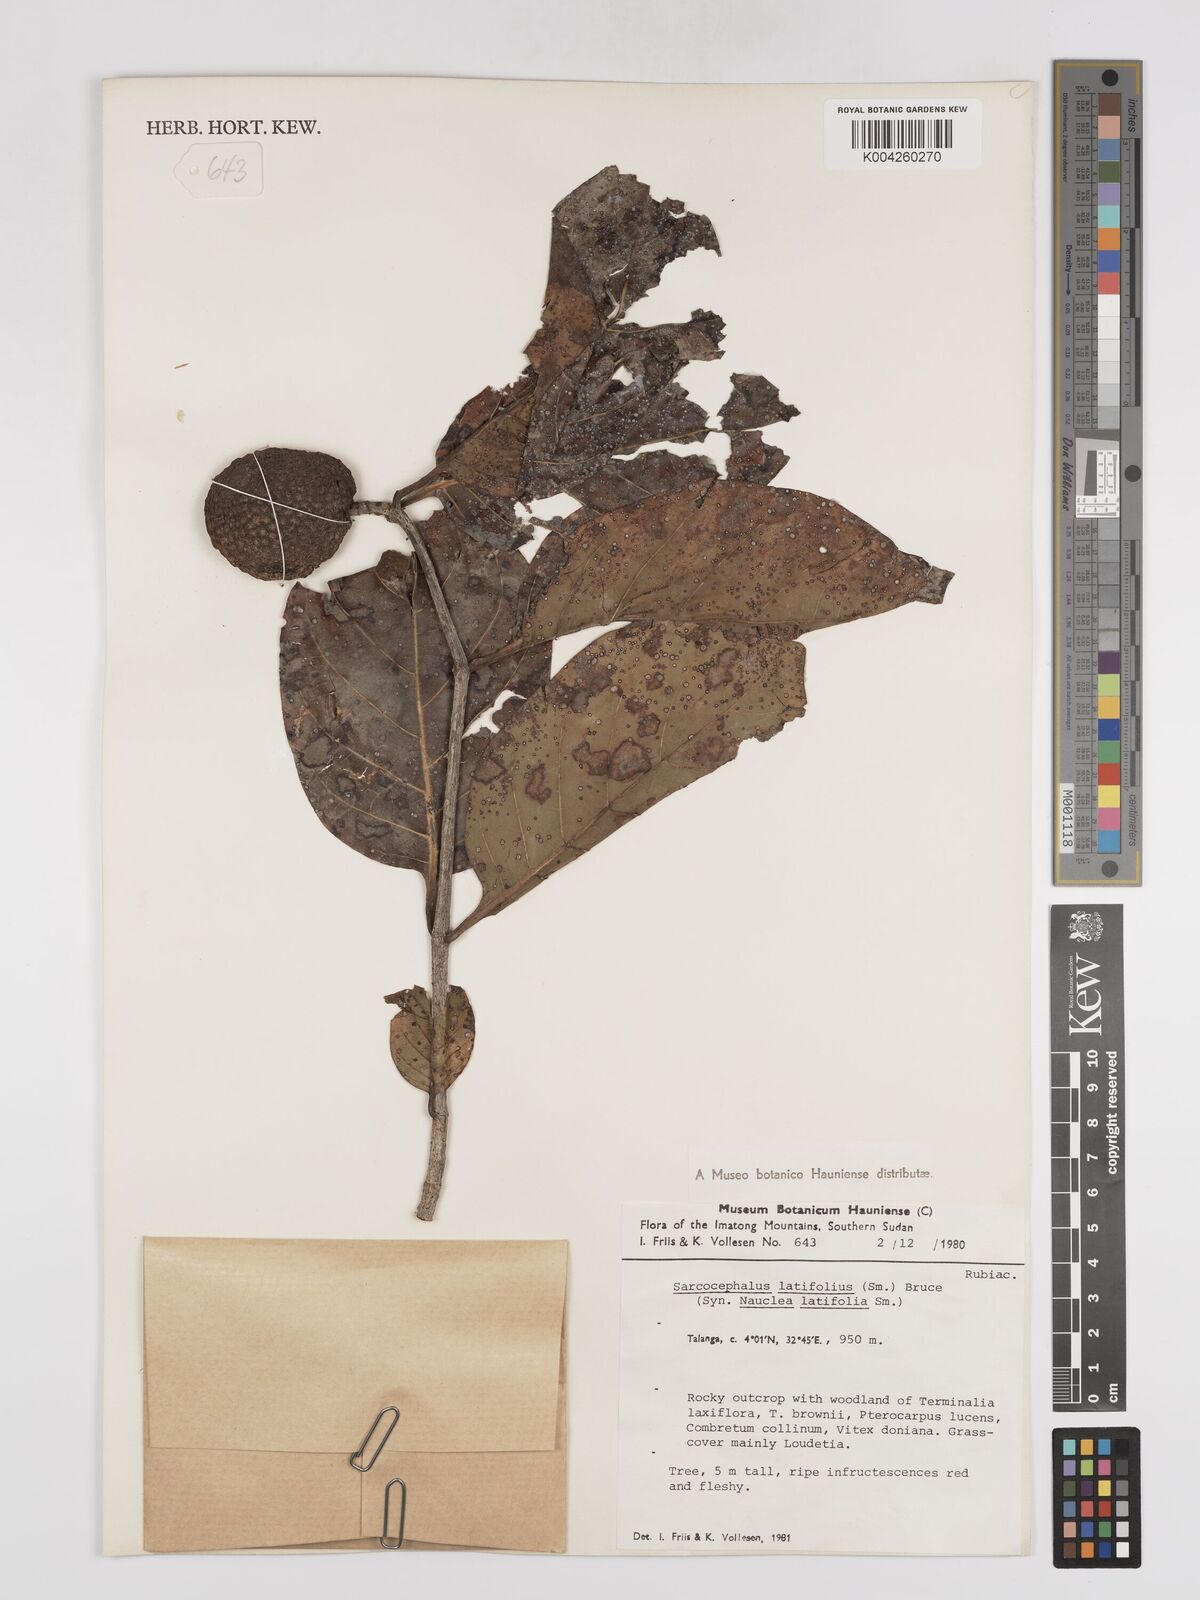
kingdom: Plantae
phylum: Tracheophyta
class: Magnoliopsida
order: Gentianales
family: Rubiaceae
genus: Nauclea
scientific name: Nauclea
